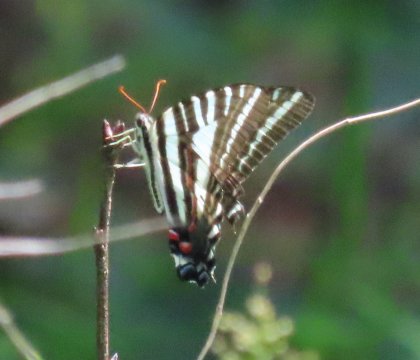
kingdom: Animalia
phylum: Arthropoda
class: Insecta
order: Lepidoptera
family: Papilionidae
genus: Protographium
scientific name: Protographium marcellus
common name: Zebra Swallowtail
